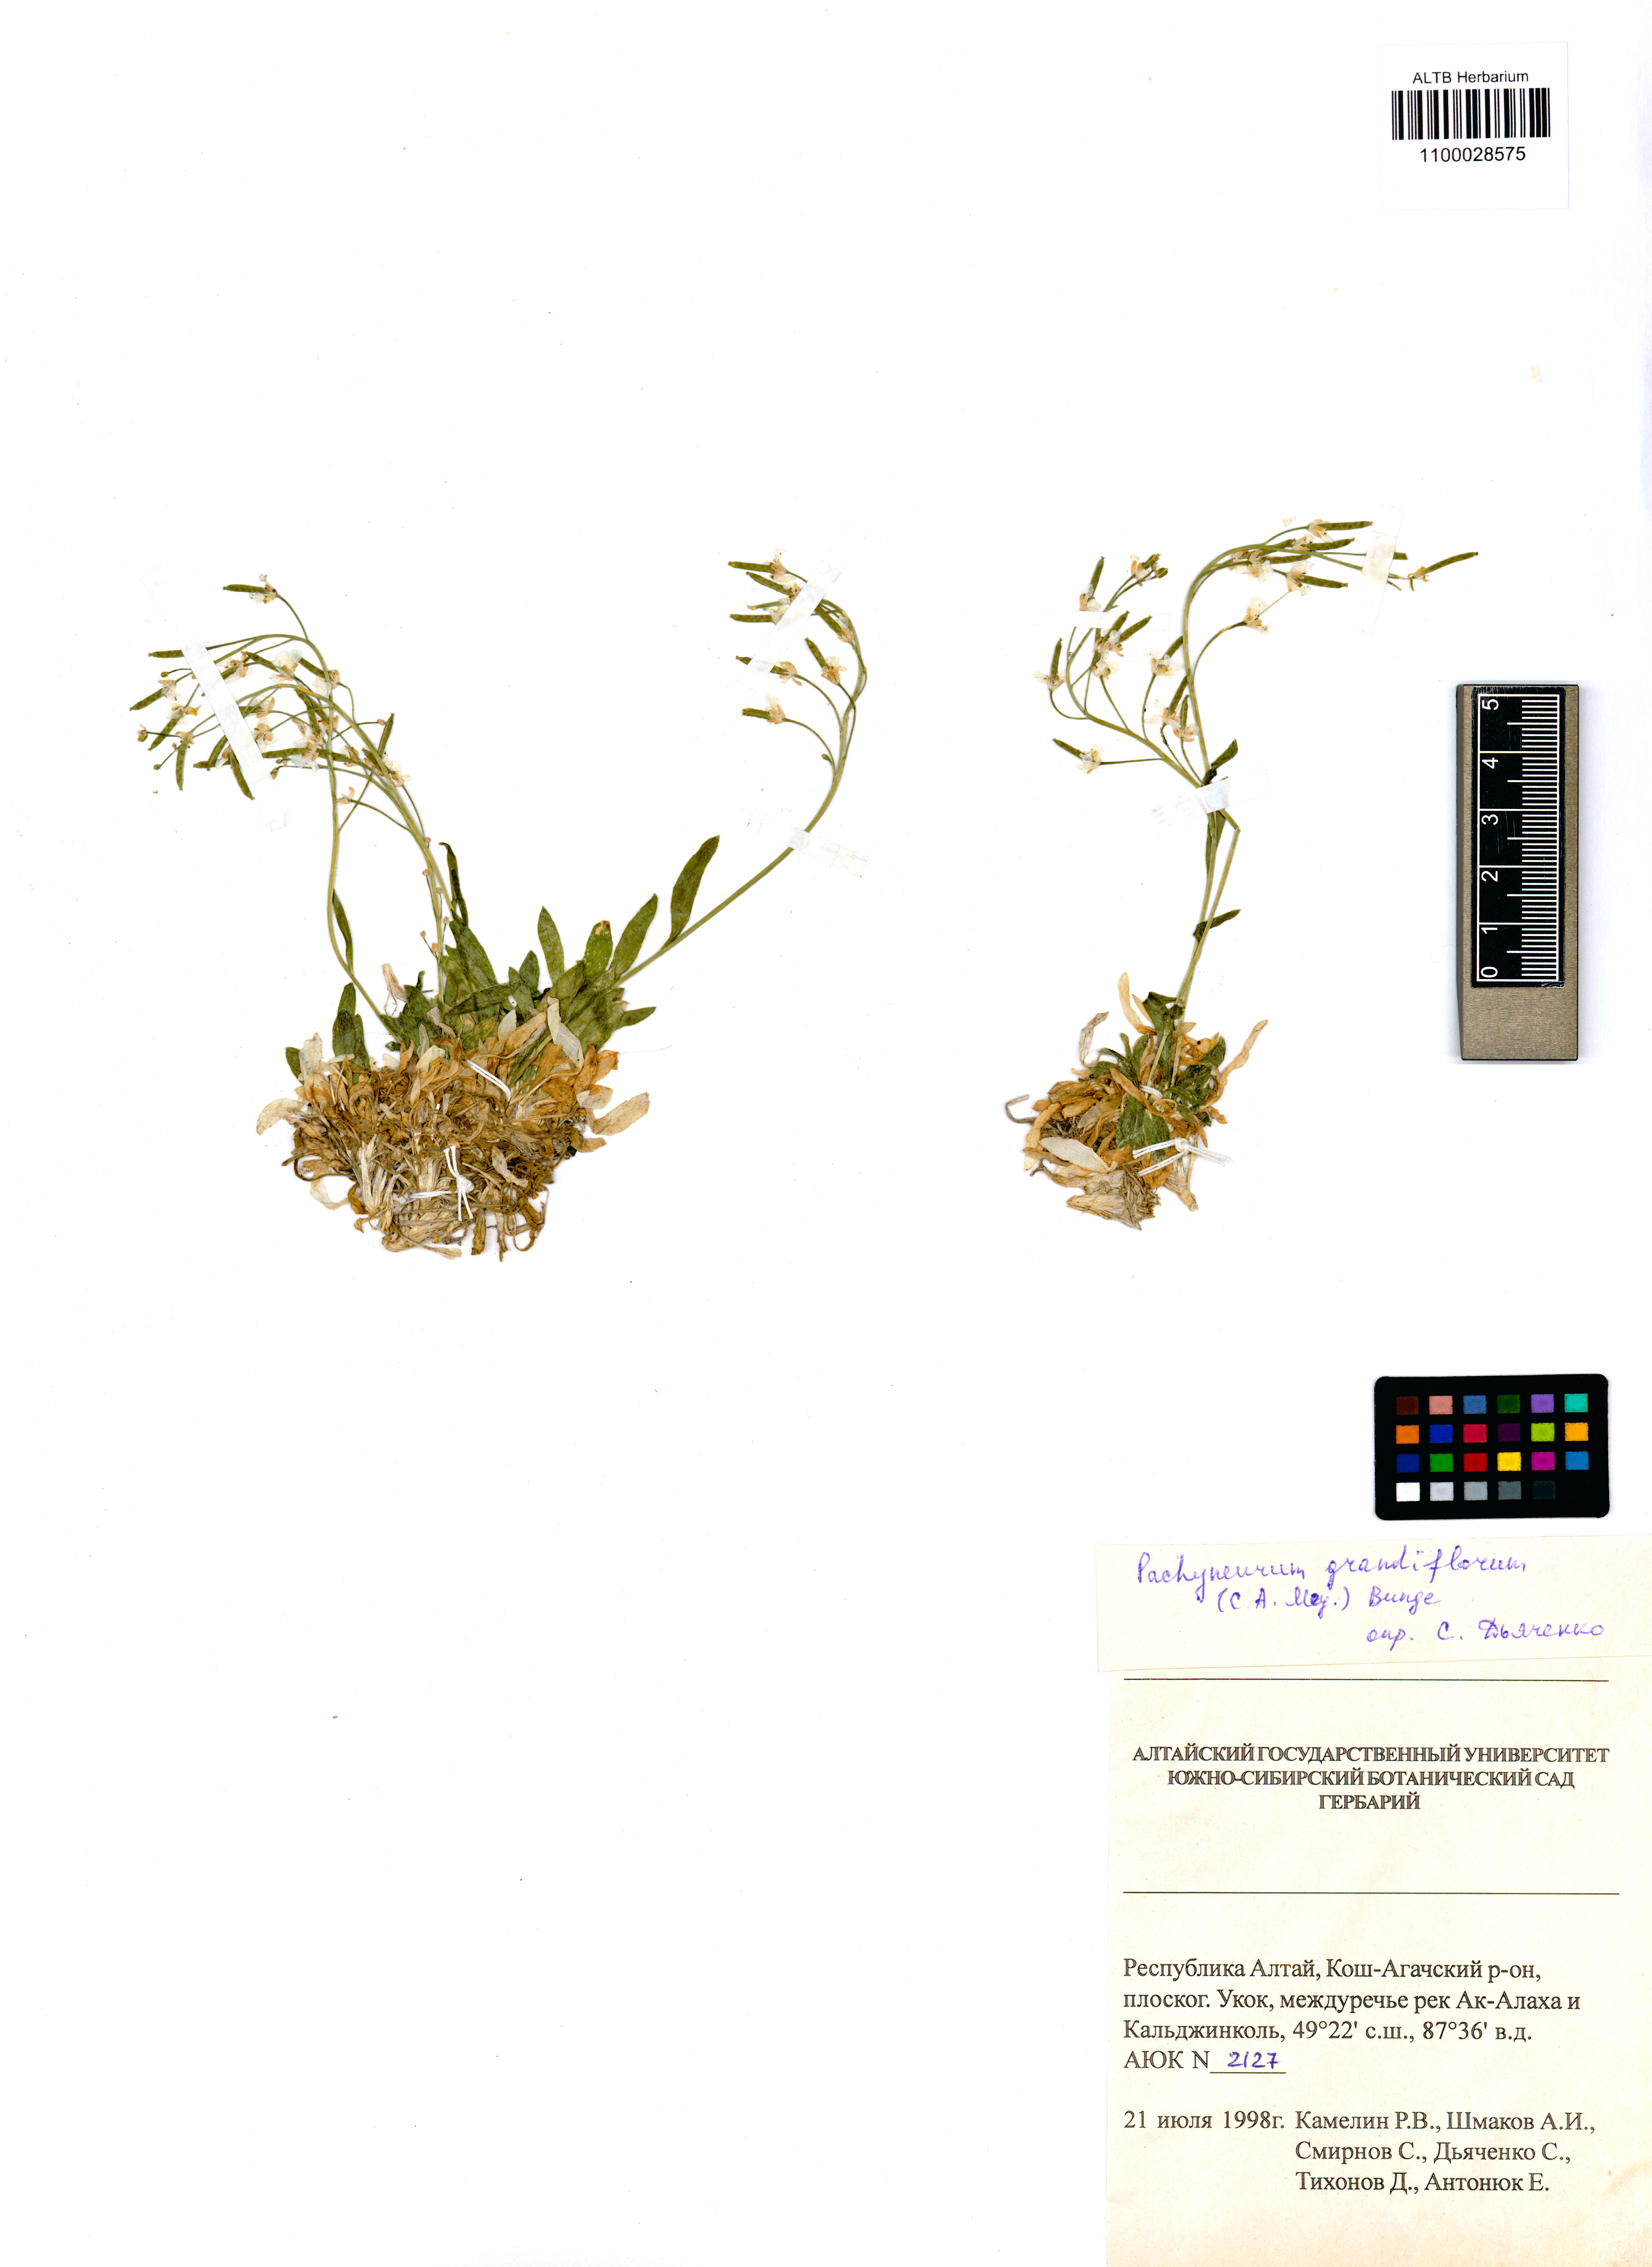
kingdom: Plantae
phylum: Tracheophyta
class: Magnoliopsida
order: Brassicales
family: Brassicaceae
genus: Pachyneurum
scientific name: Pachyneurum grandiflorum
